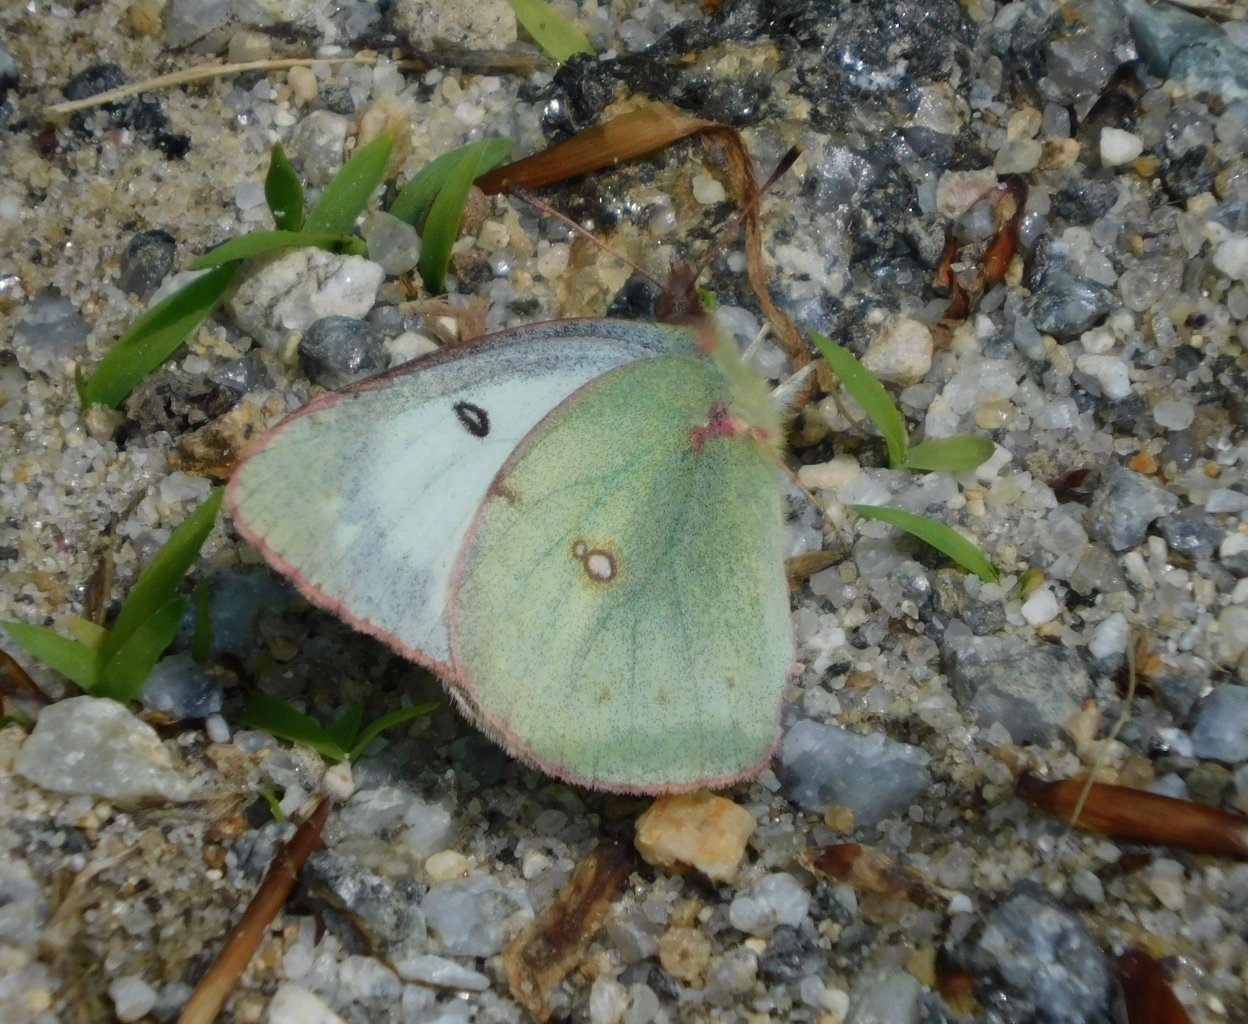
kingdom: Animalia
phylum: Arthropoda
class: Insecta
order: Lepidoptera
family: Pieridae
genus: Colias
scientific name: Colias philodice
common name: Clouded Sulphur
